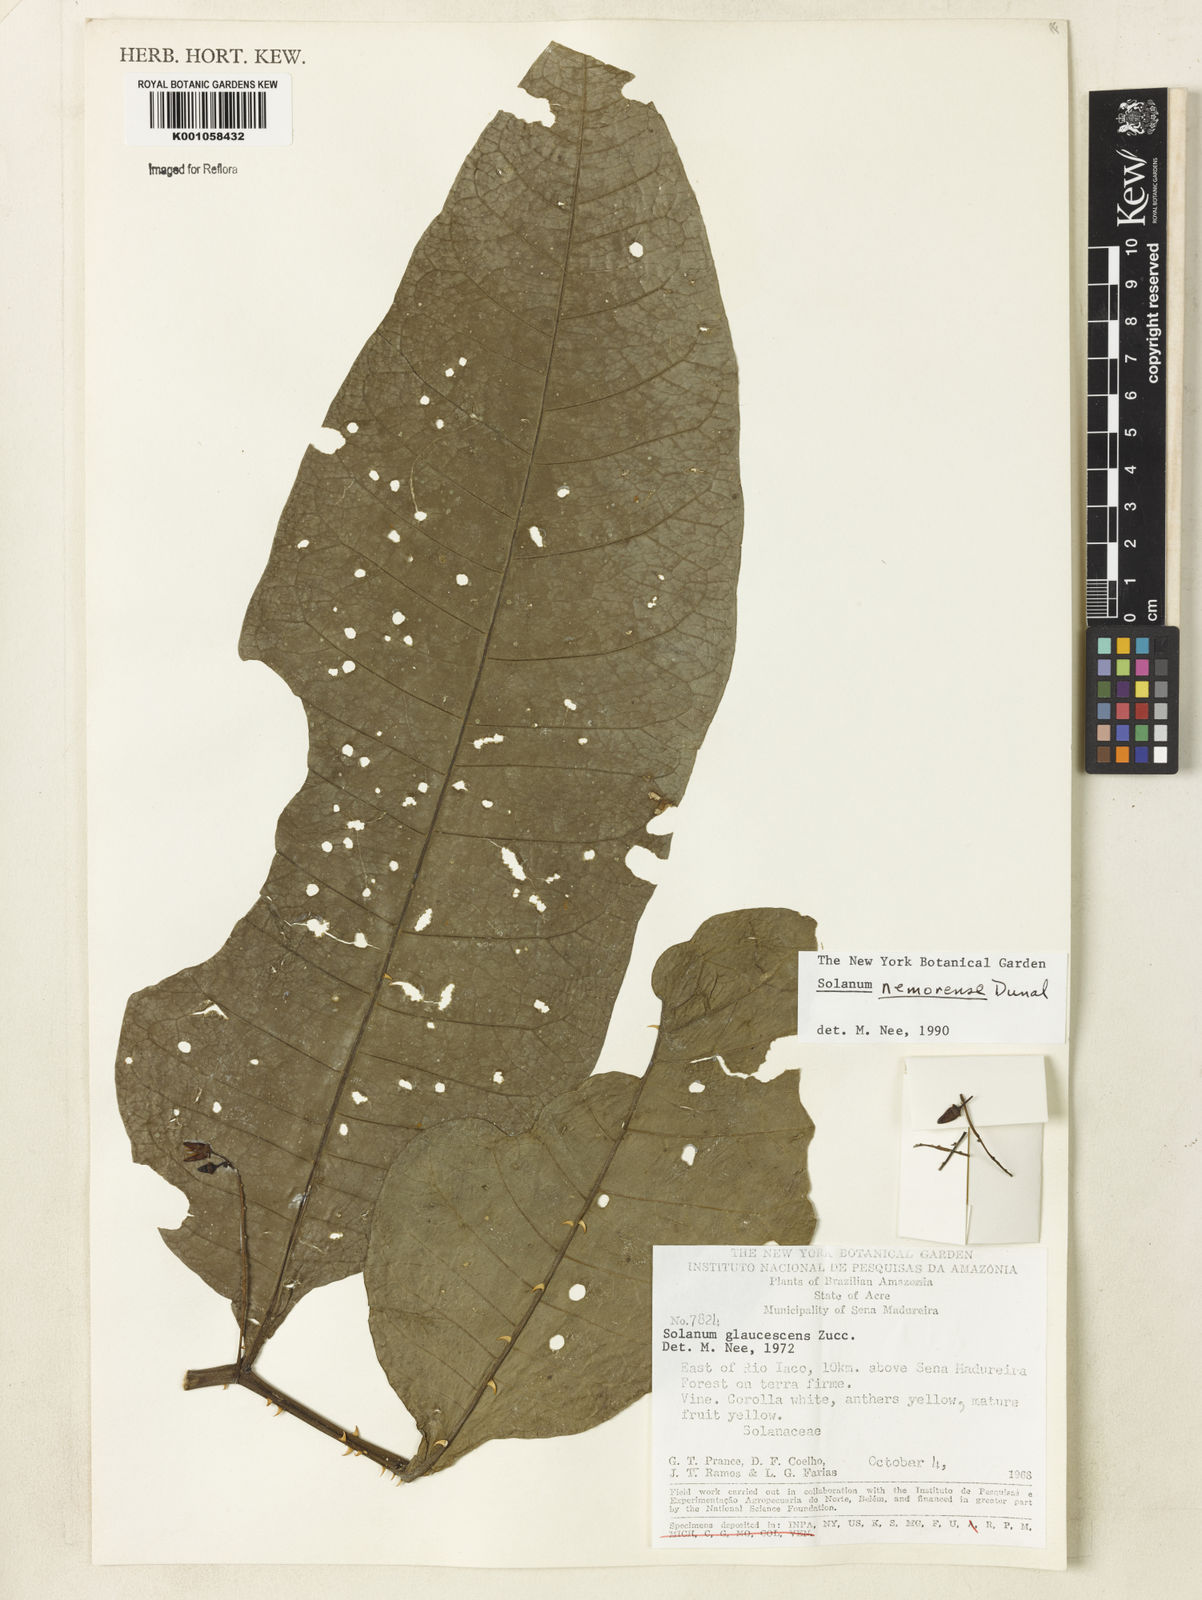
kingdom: Plantae
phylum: Tracheophyta
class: Magnoliopsida
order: Solanales
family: Solanaceae
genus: Solanum
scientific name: Solanum nemorense
